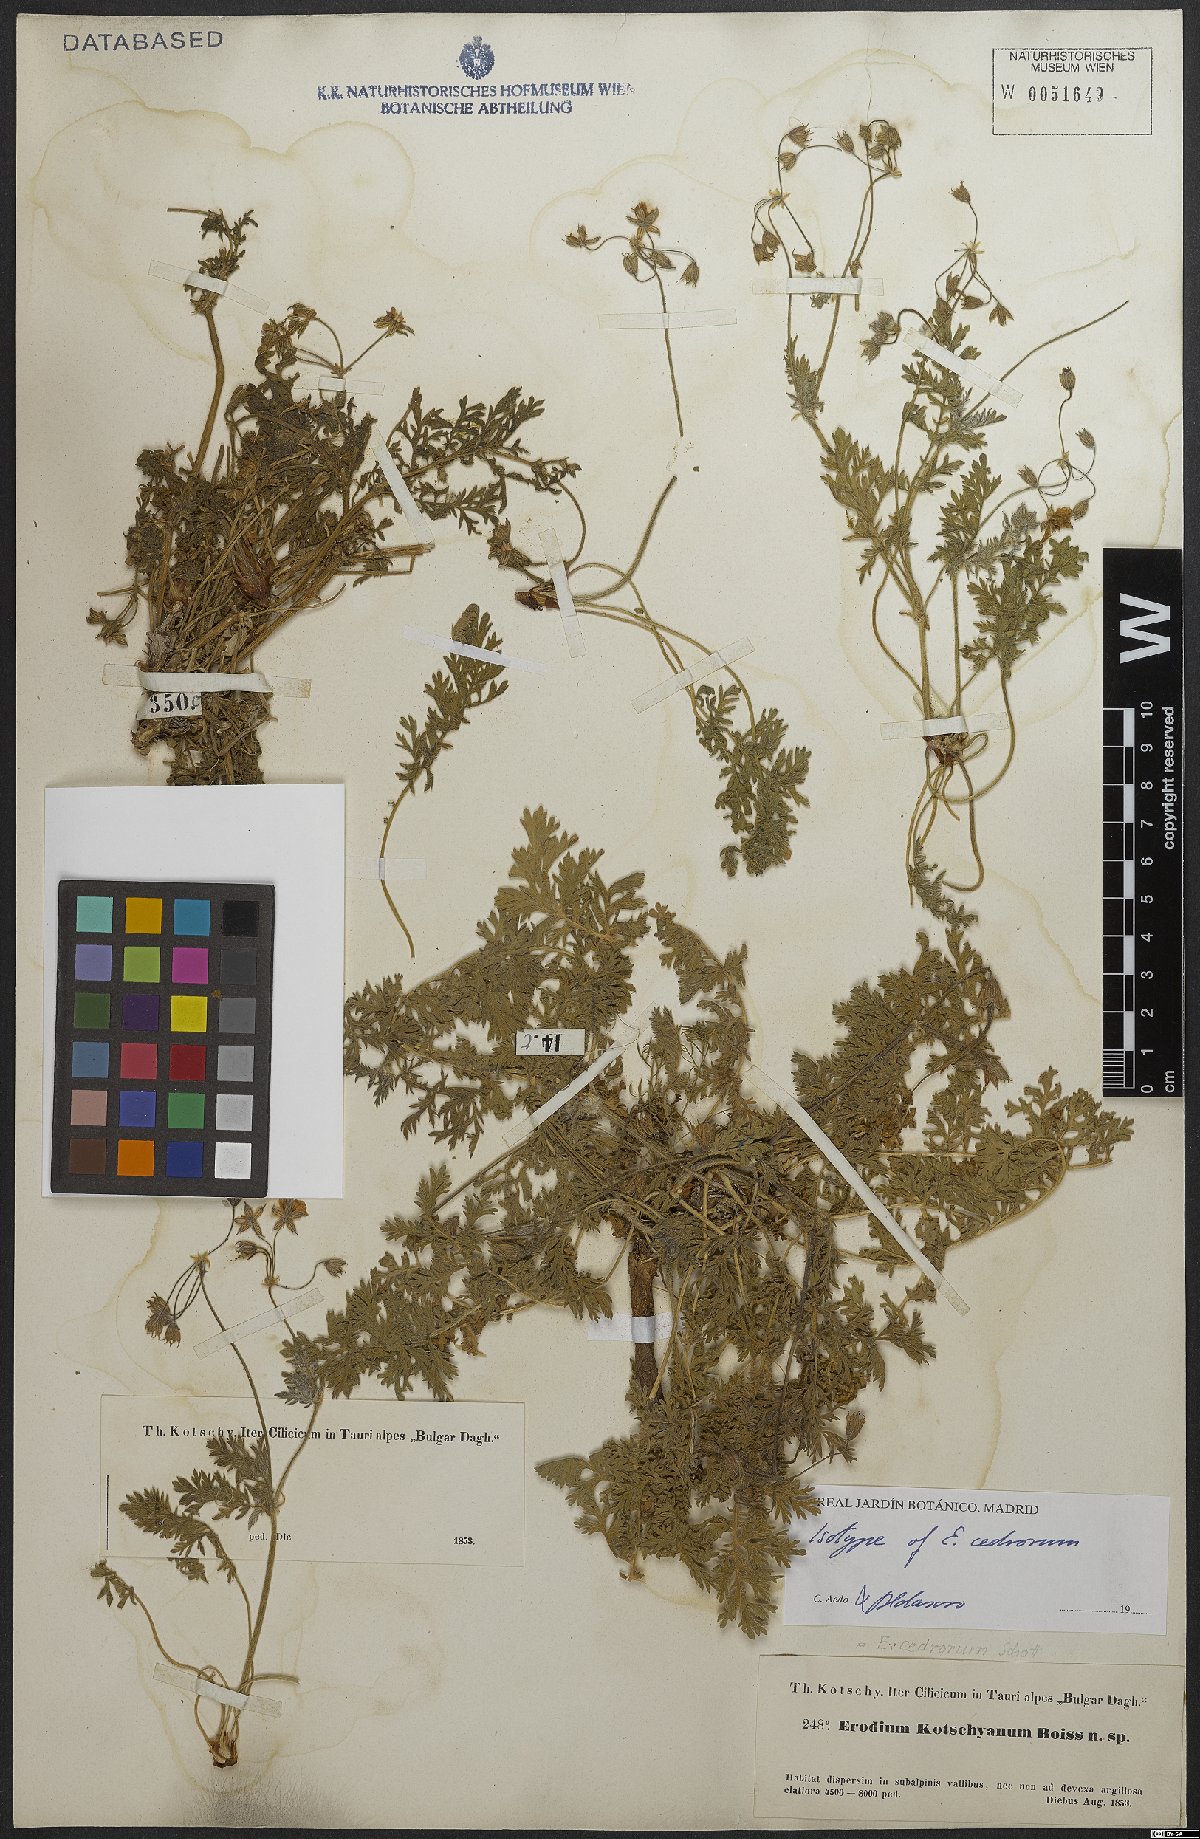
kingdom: Plantae
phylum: Tracheophyta
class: Magnoliopsida
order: Geraniales
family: Geraniaceae
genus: Erodium
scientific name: Erodium cedrorum
